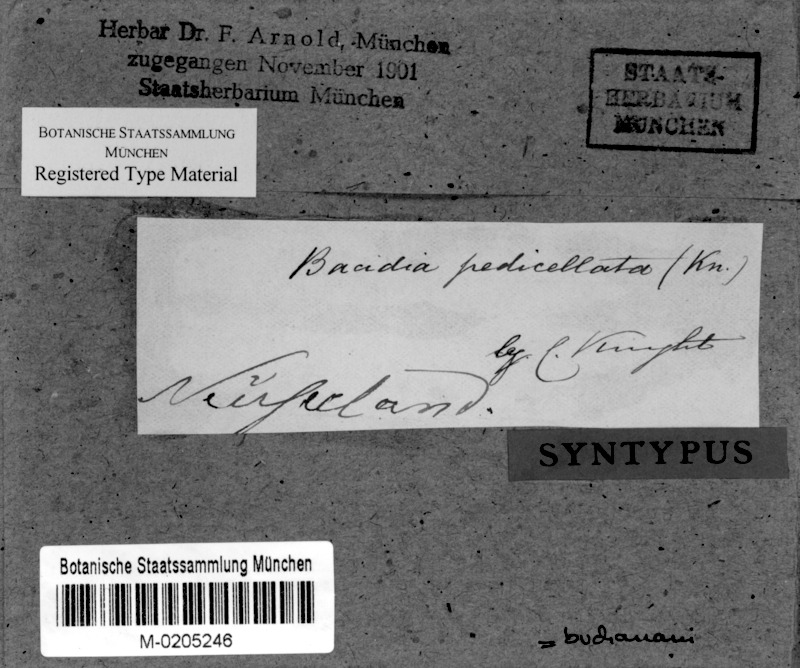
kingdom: Fungi
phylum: Ascomycota
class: Lecanoromycetes
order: Lecanorales
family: Byssolomataceae
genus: Bapalmuia
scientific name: Bapalmuia buchananii
